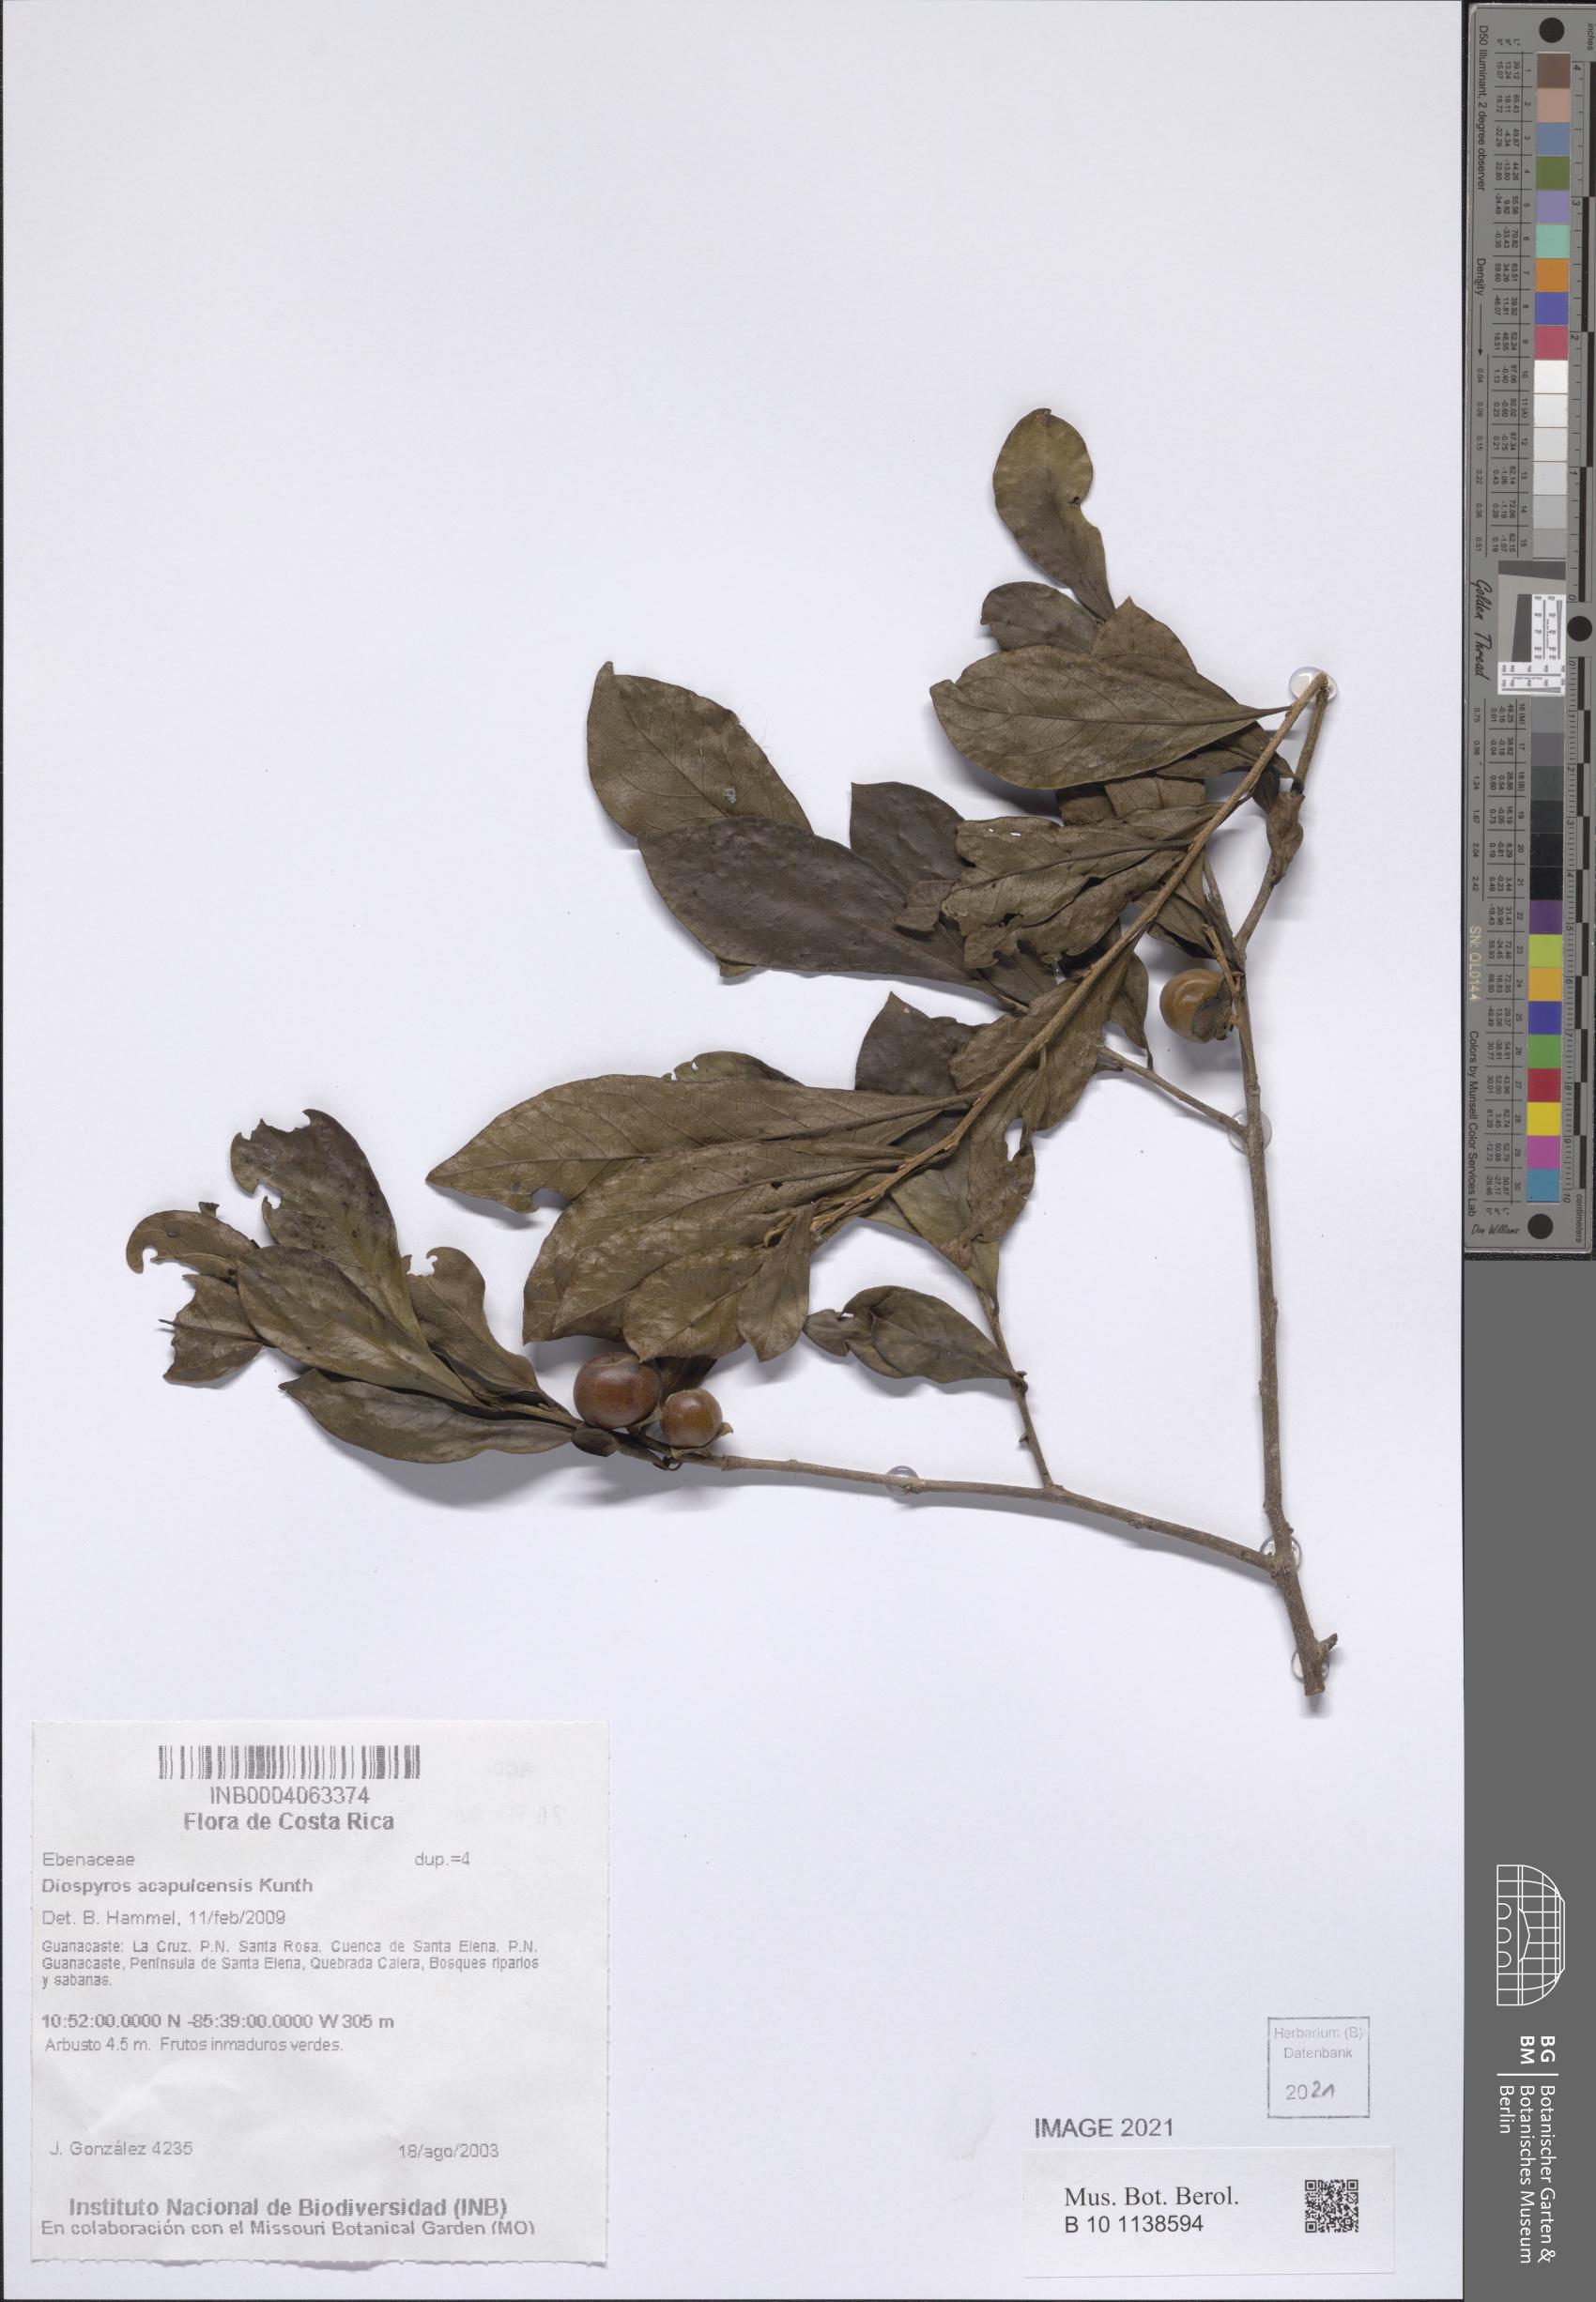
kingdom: Plantae
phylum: Tracheophyta
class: Magnoliopsida
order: Ericales
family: Ebenaceae
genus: Diospyros
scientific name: Diospyros acapulcensis
